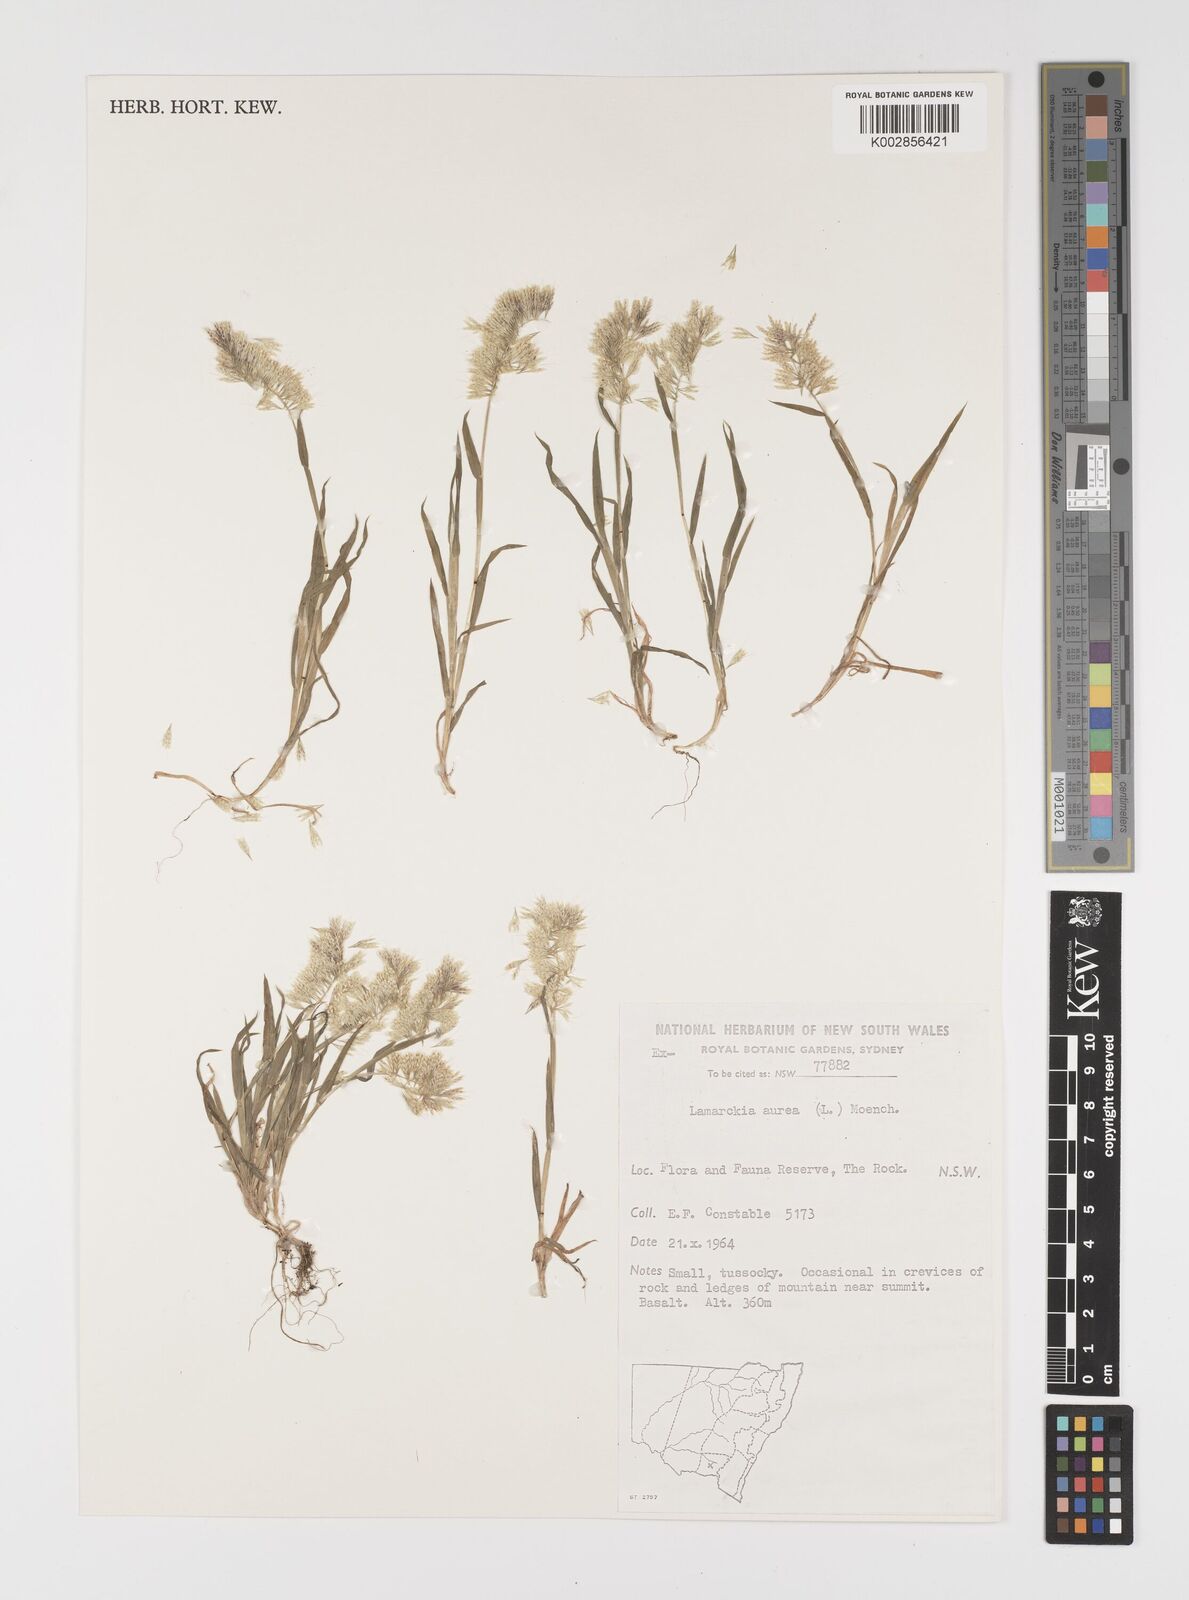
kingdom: Plantae
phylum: Tracheophyta
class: Liliopsida
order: Poales
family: Poaceae
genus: Lamarckia
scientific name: Lamarckia aurea
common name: Golden dog's-tail
